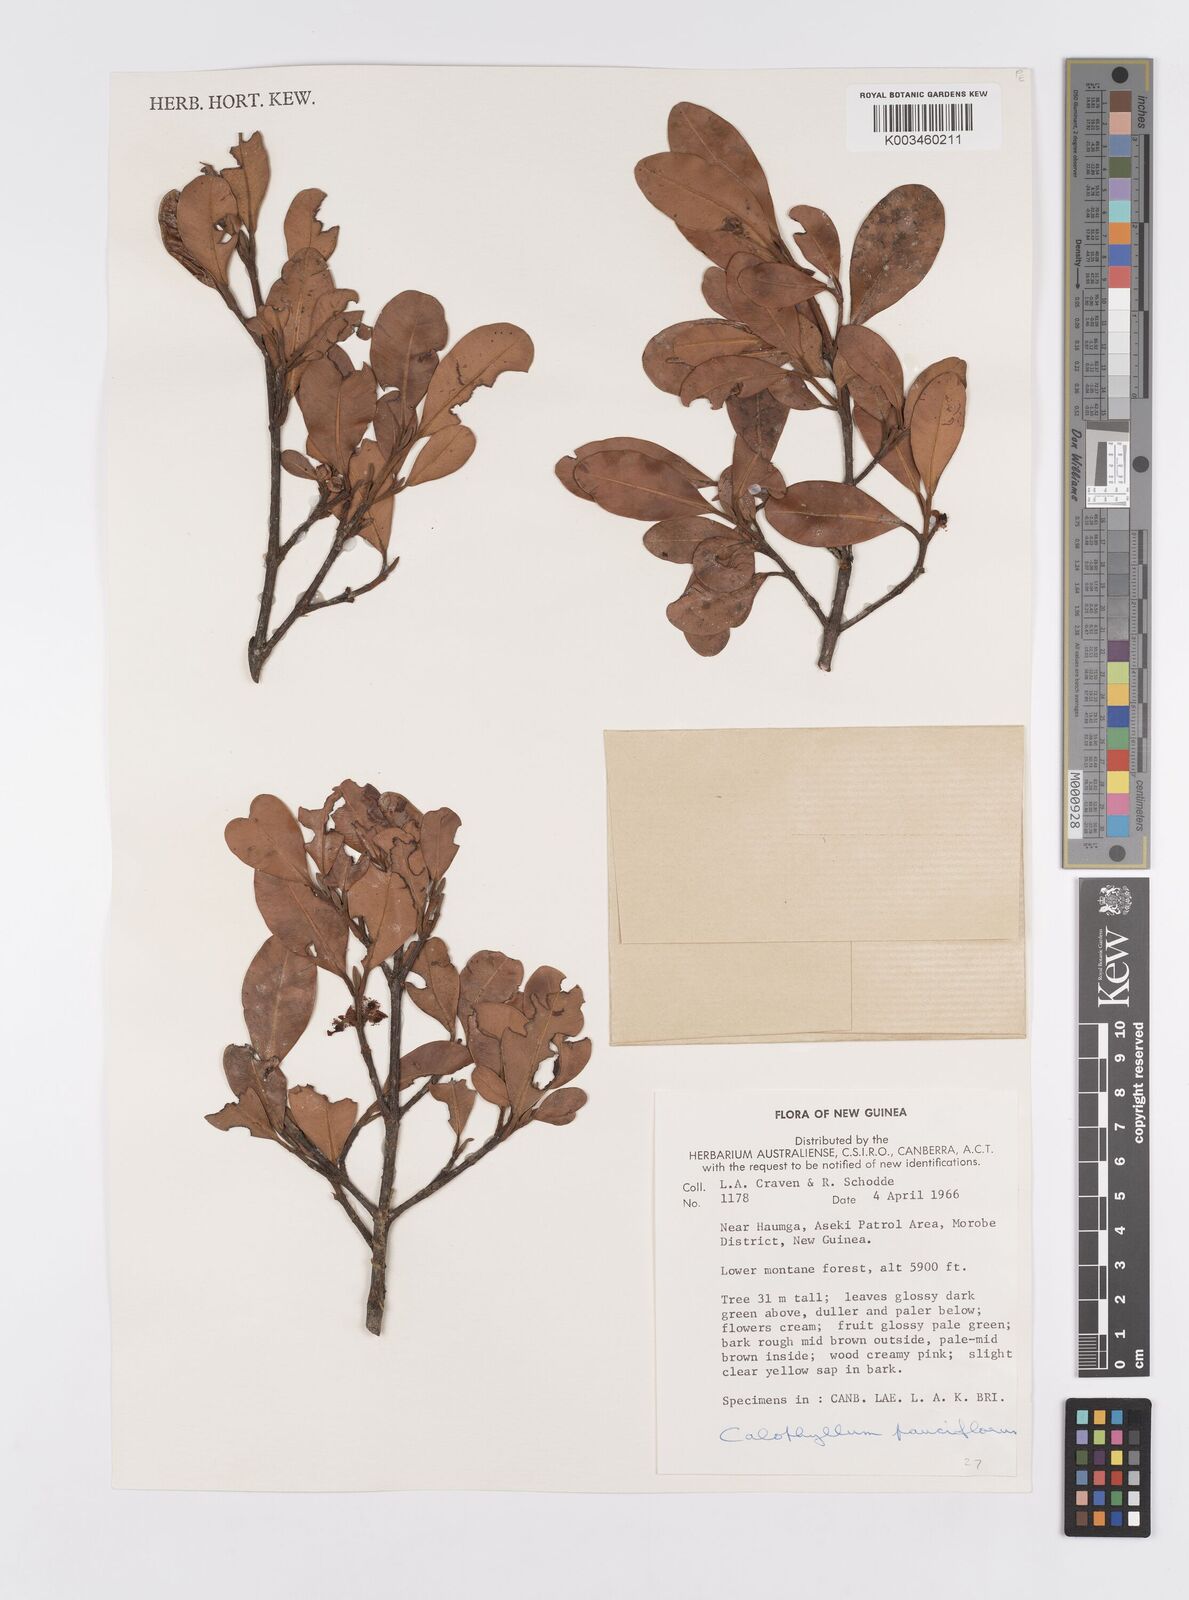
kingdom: Plantae
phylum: Tracheophyta
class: Magnoliopsida
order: Malpighiales
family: Calophyllaceae
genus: Calophyllum
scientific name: Calophyllum parviflorum
